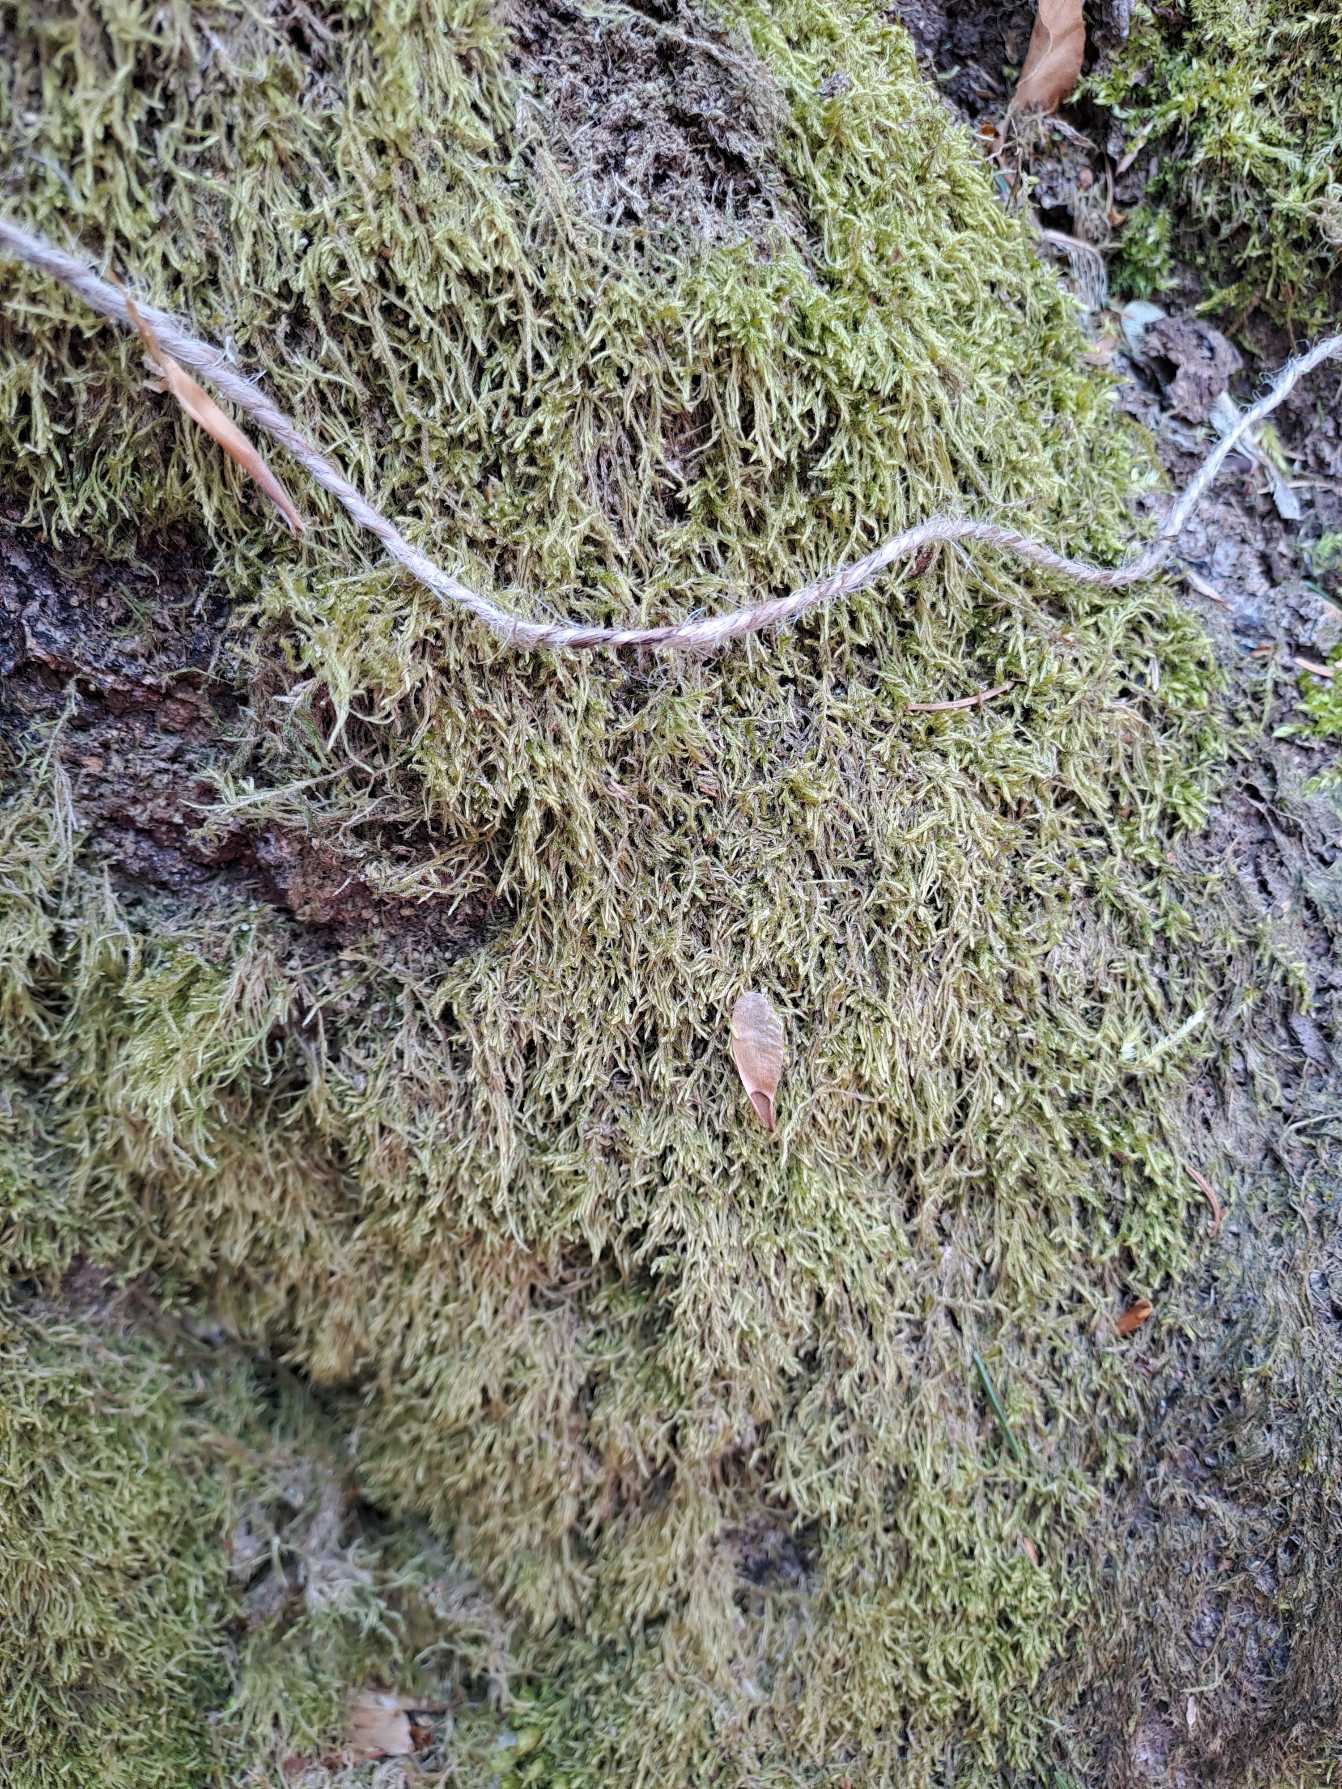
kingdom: Plantae
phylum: Bryophyta
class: Bryopsida
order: Hypnales
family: Hypnaceae
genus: Hypnum
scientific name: Hypnum
